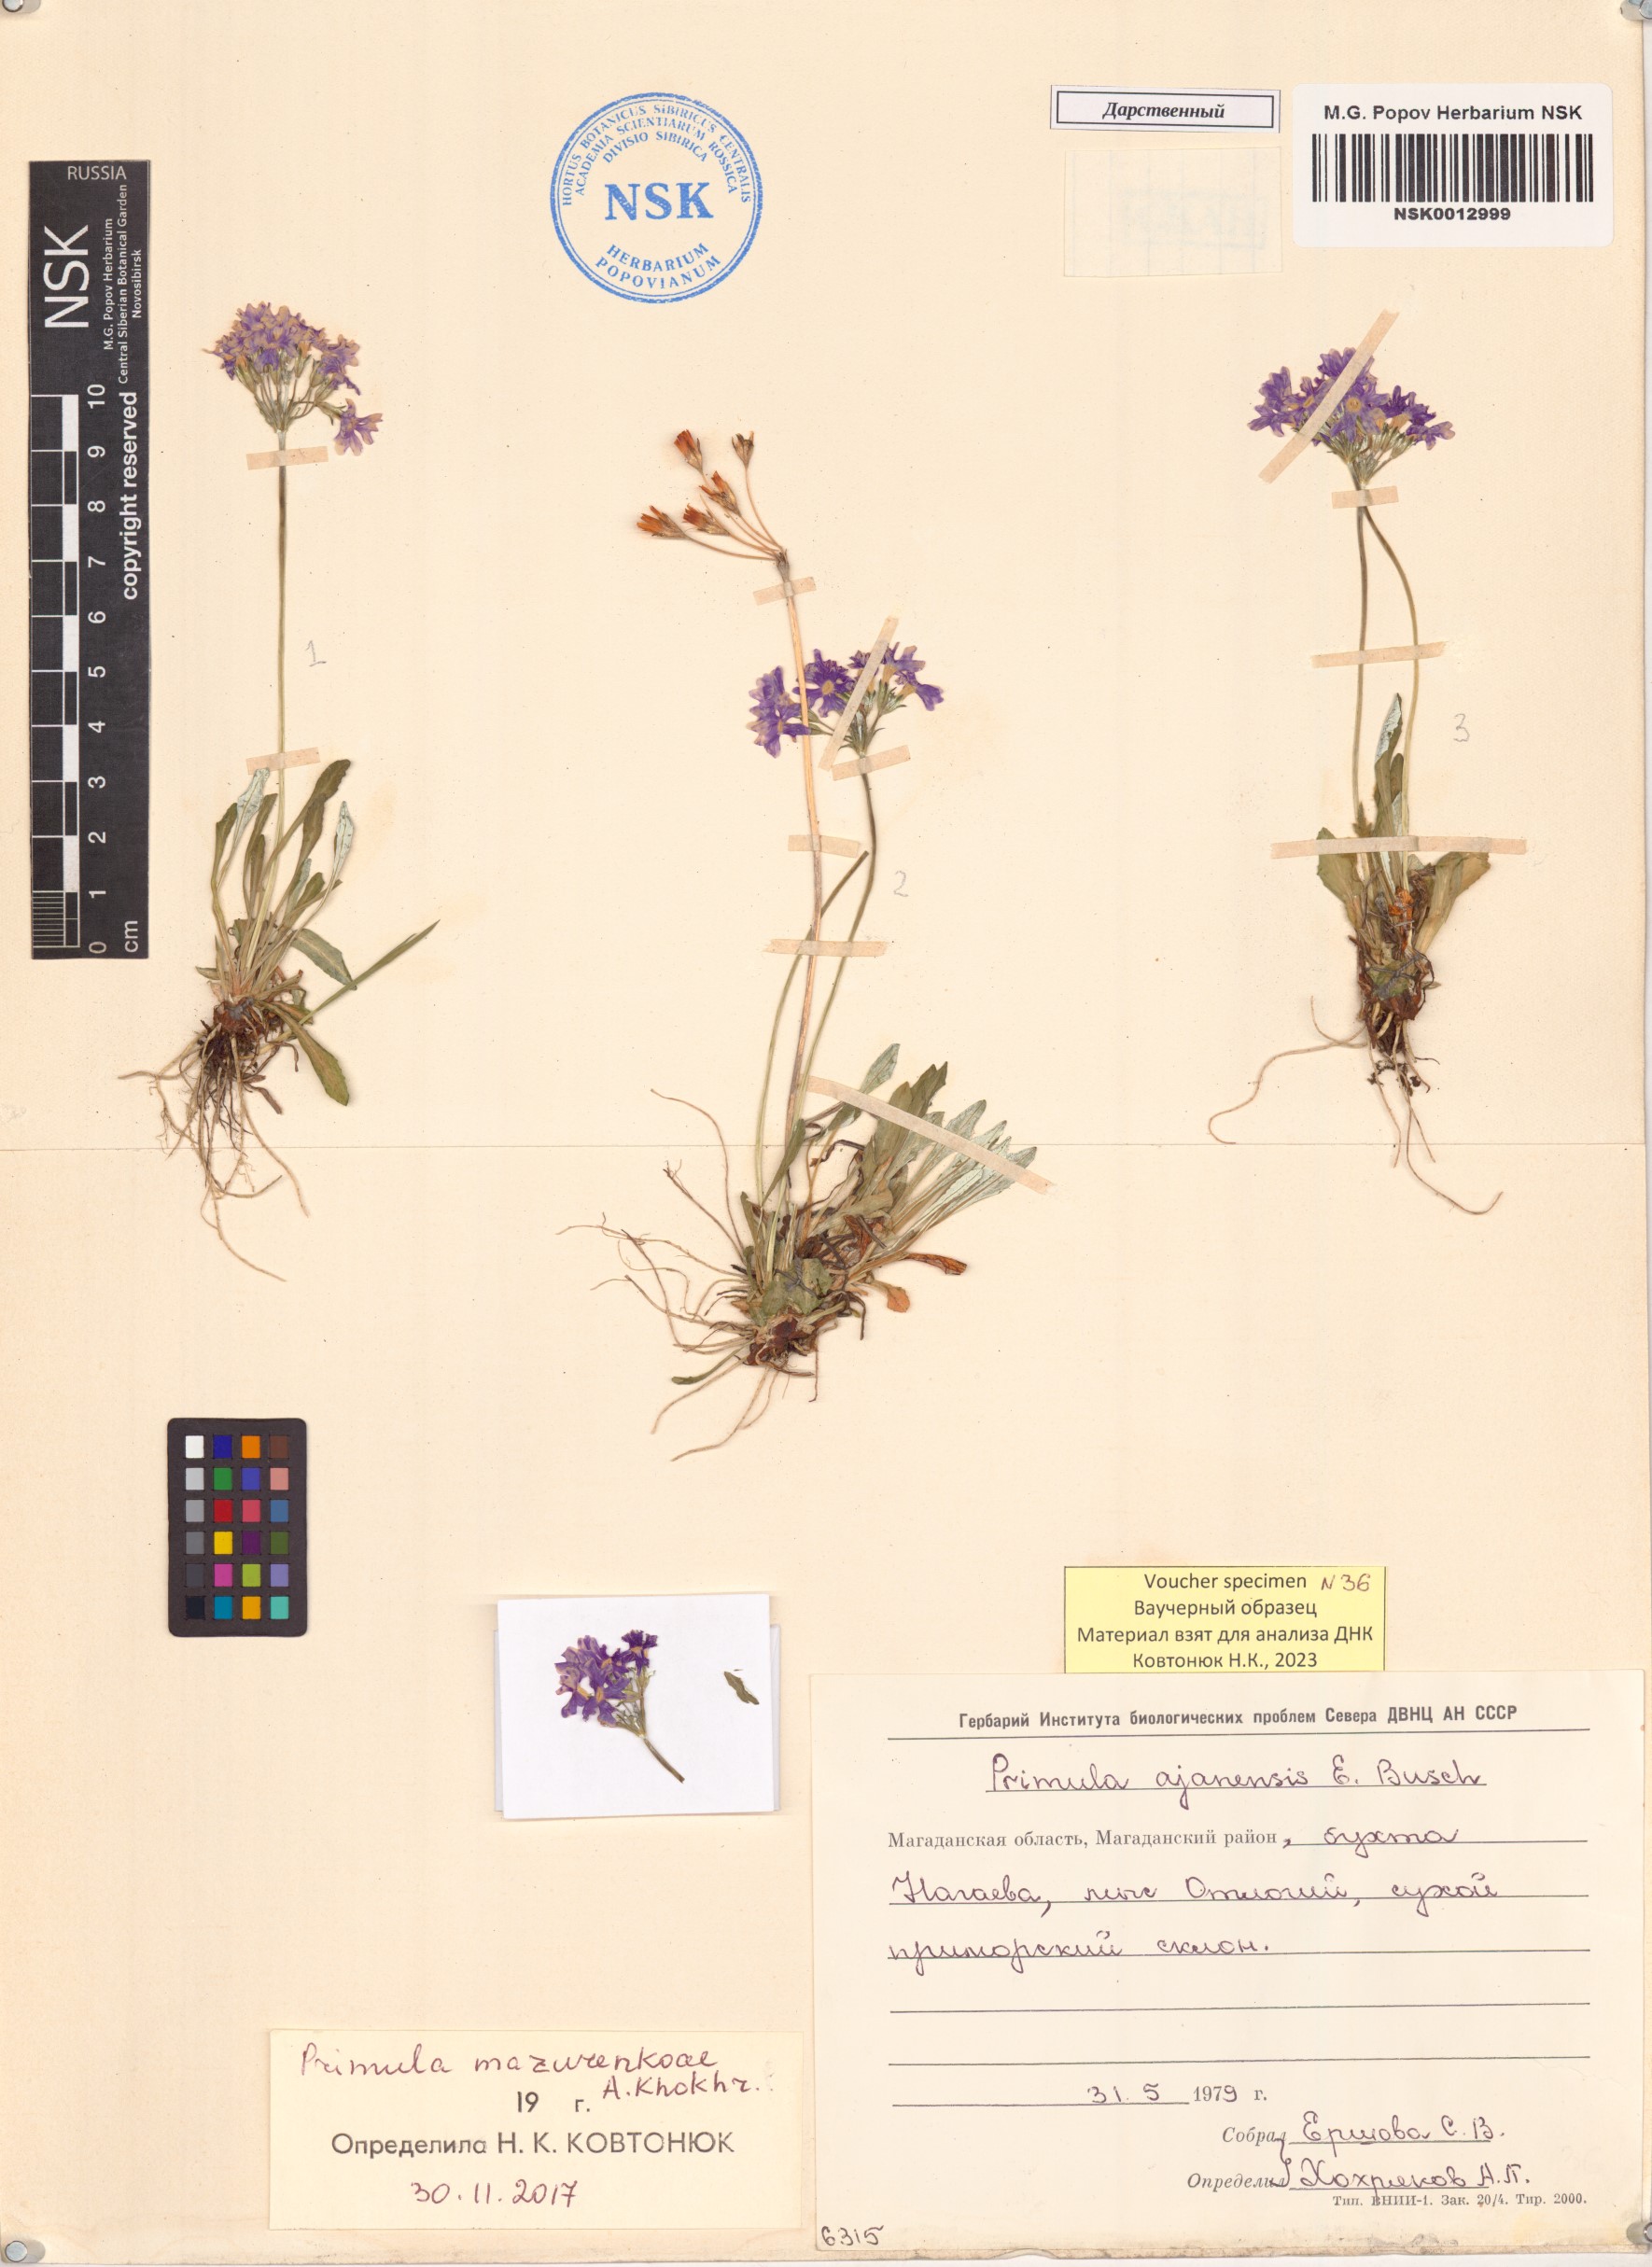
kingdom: Plantae
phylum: Tracheophyta
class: Magnoliopsida
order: Ericales
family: Primulaceae
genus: Primula
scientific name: Primula mazurenkoae
